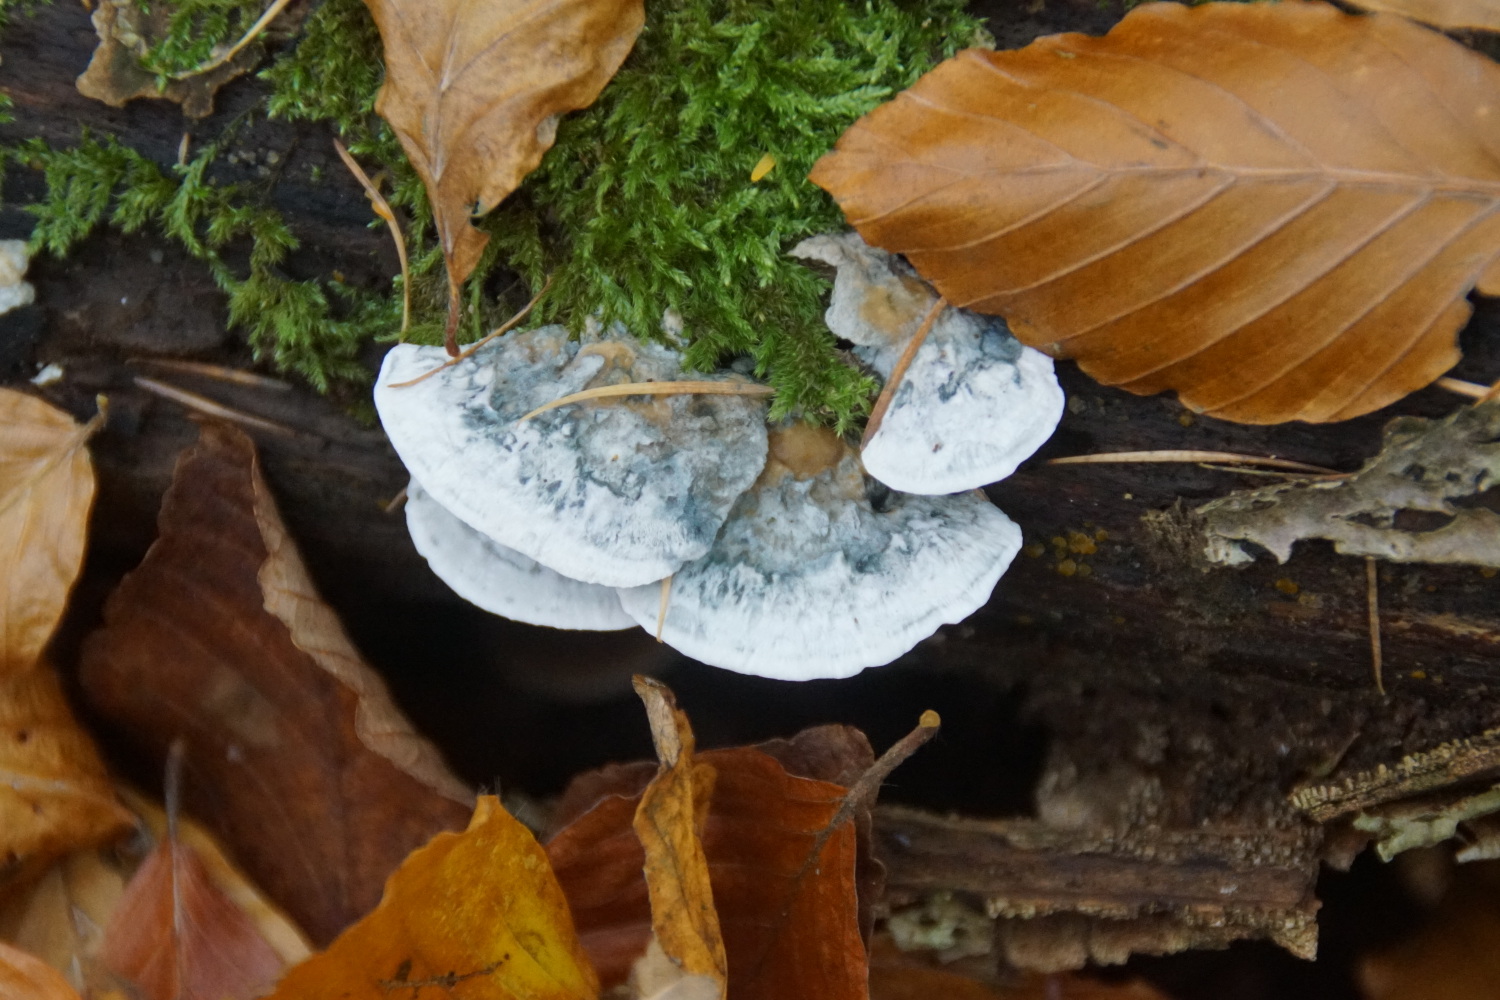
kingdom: Fungi
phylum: Basidiomycota
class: Agaricomycetes
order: Polyporales
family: Polyporaceae
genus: Cyanosporus
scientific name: Cyanosporus alni
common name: blegblå kødporesvamp
